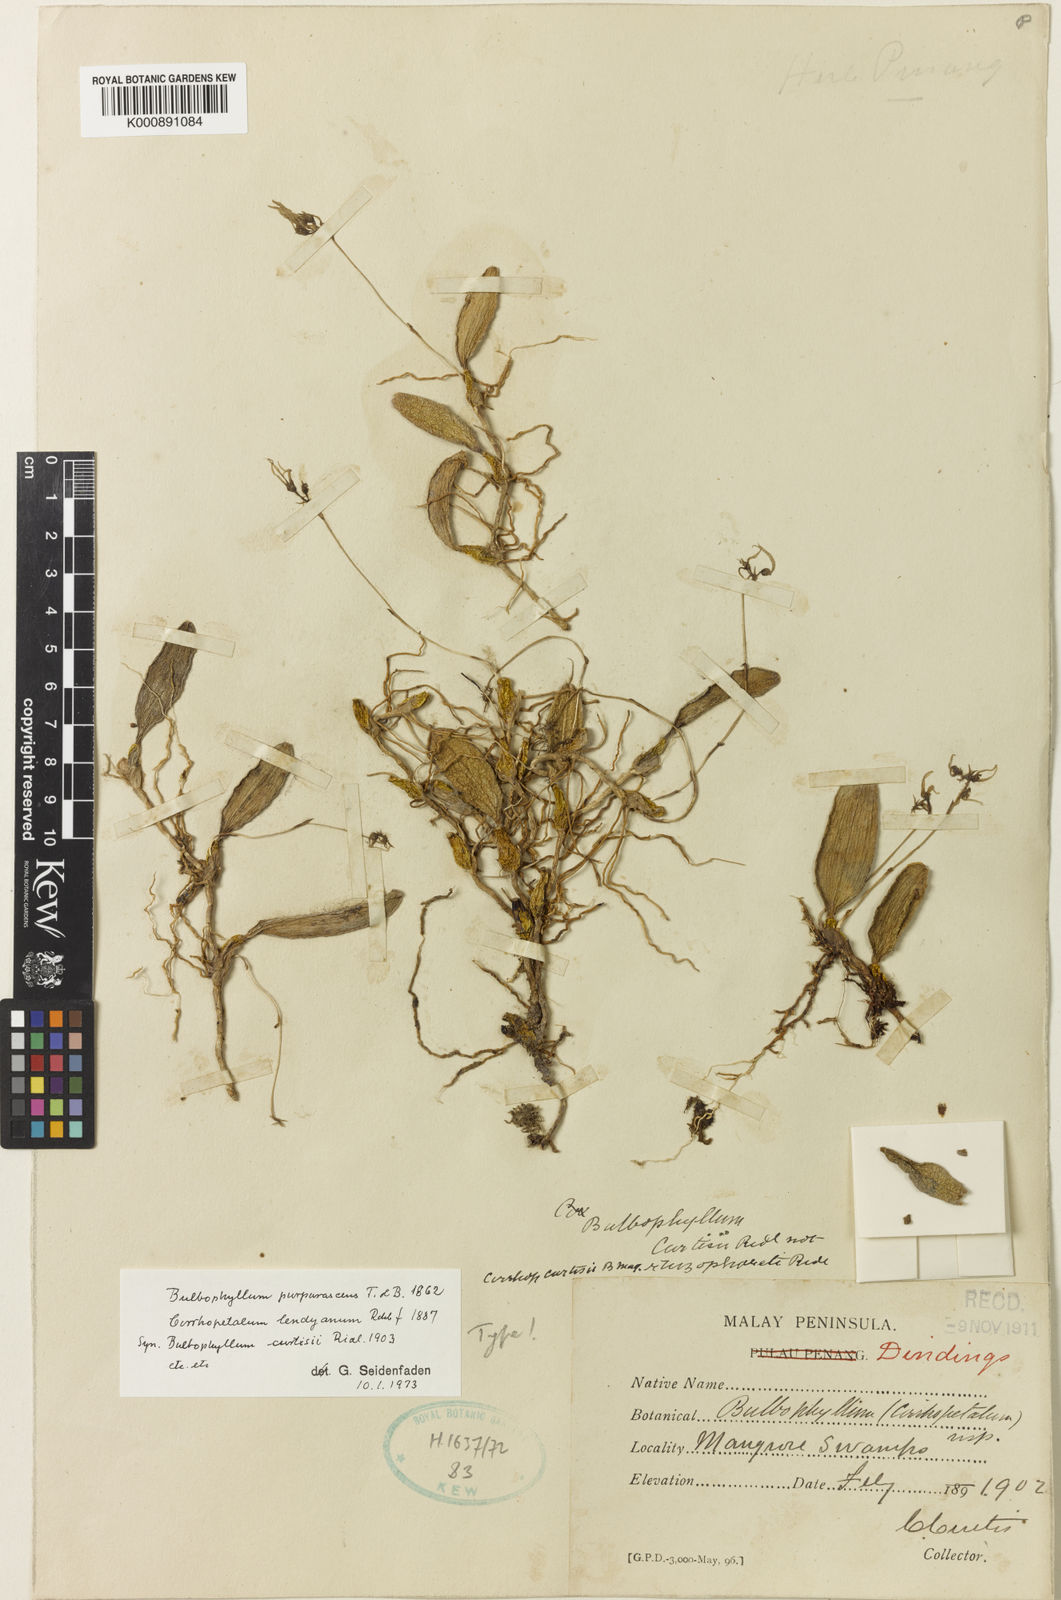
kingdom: Plantae
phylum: Tracheophyta
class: Liliopsida
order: Asparagales
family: Orchidaceae
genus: Bulbophyllum
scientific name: Bulbophyllum purpurascens
